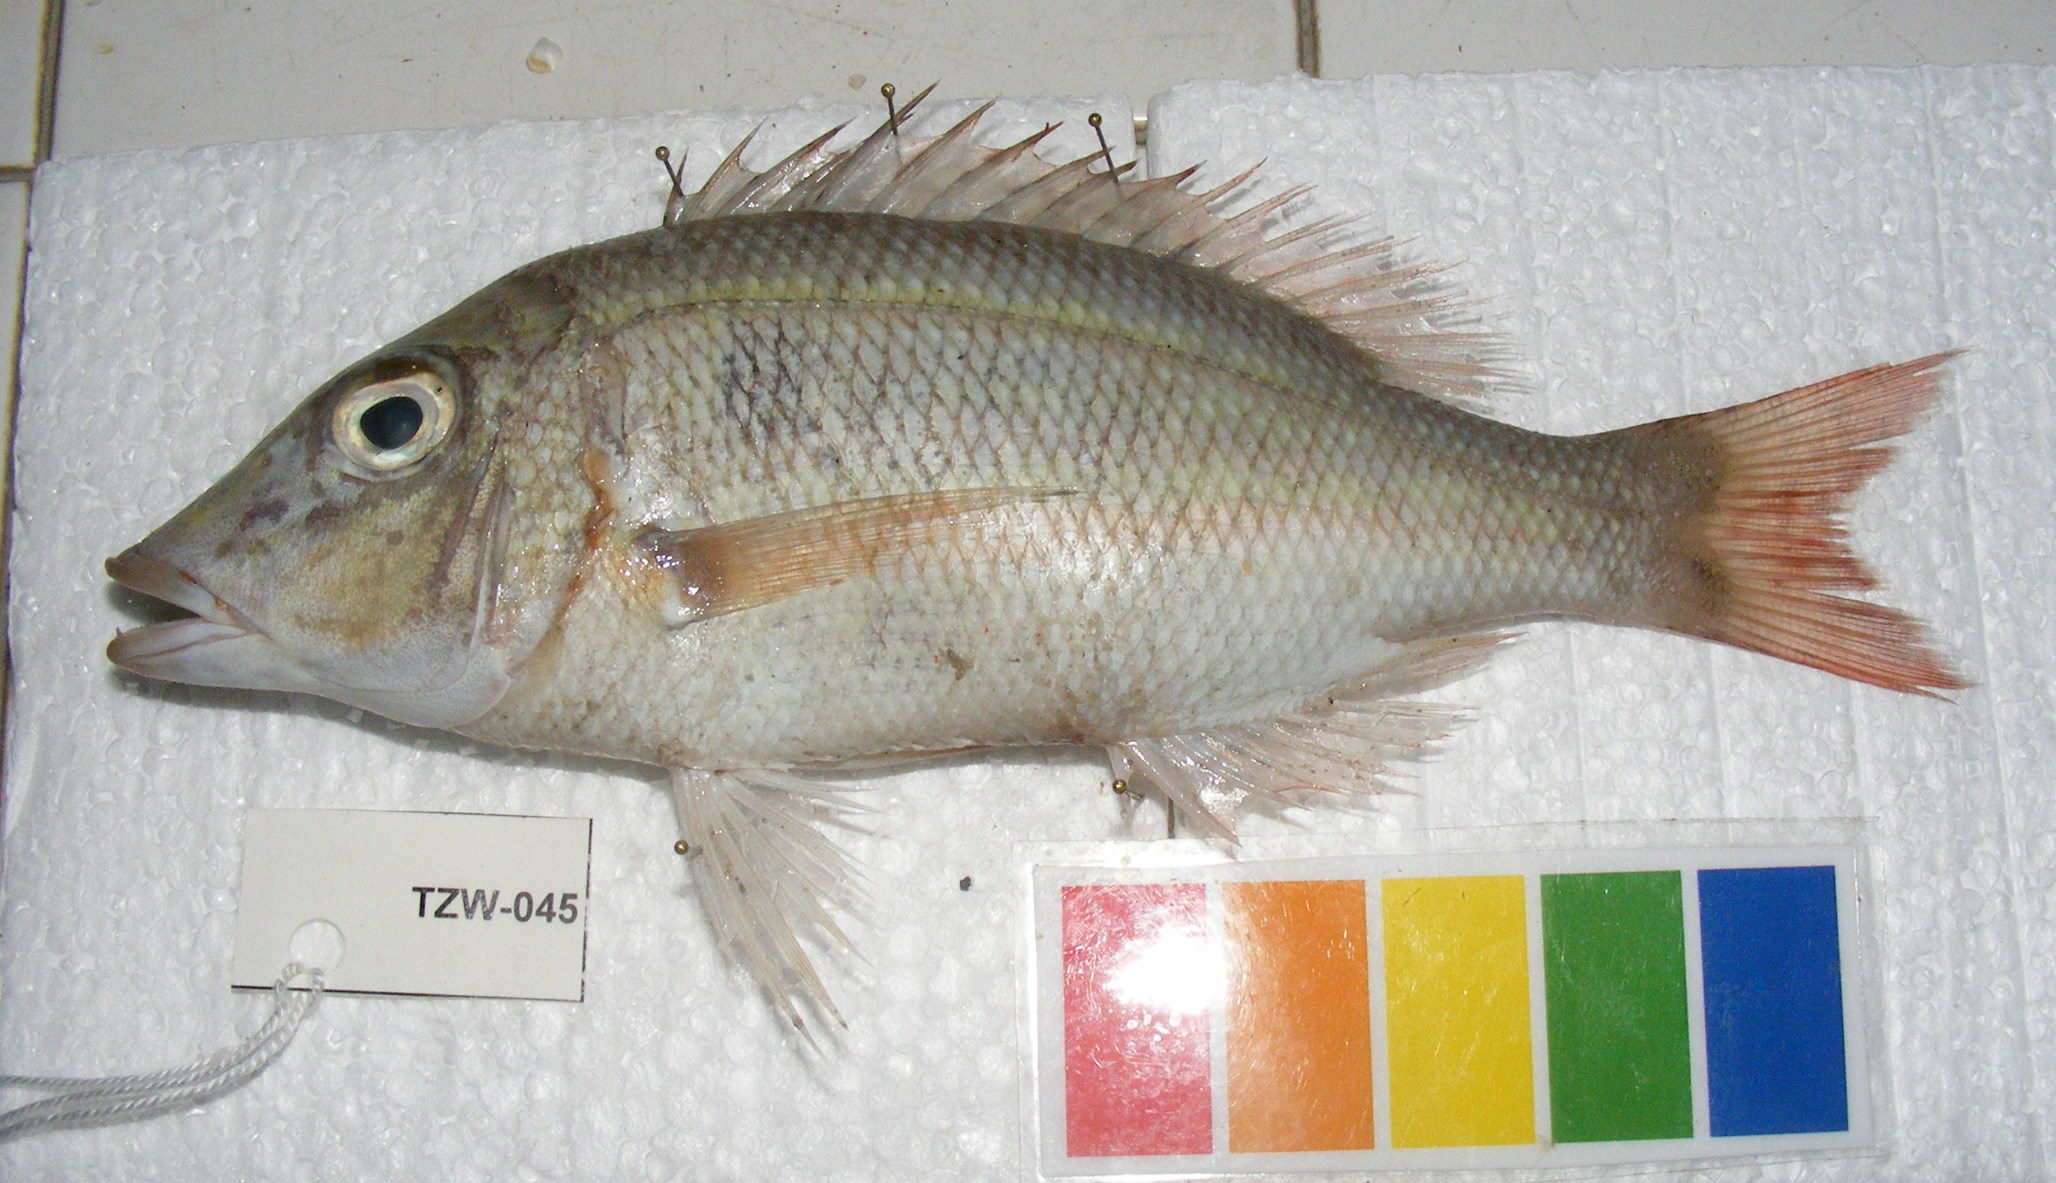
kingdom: Animalia
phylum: Chordata
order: Perciformes
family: Lethrinidae
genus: Lethrinus
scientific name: Lethrinus lentjan
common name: Redspot emperor
